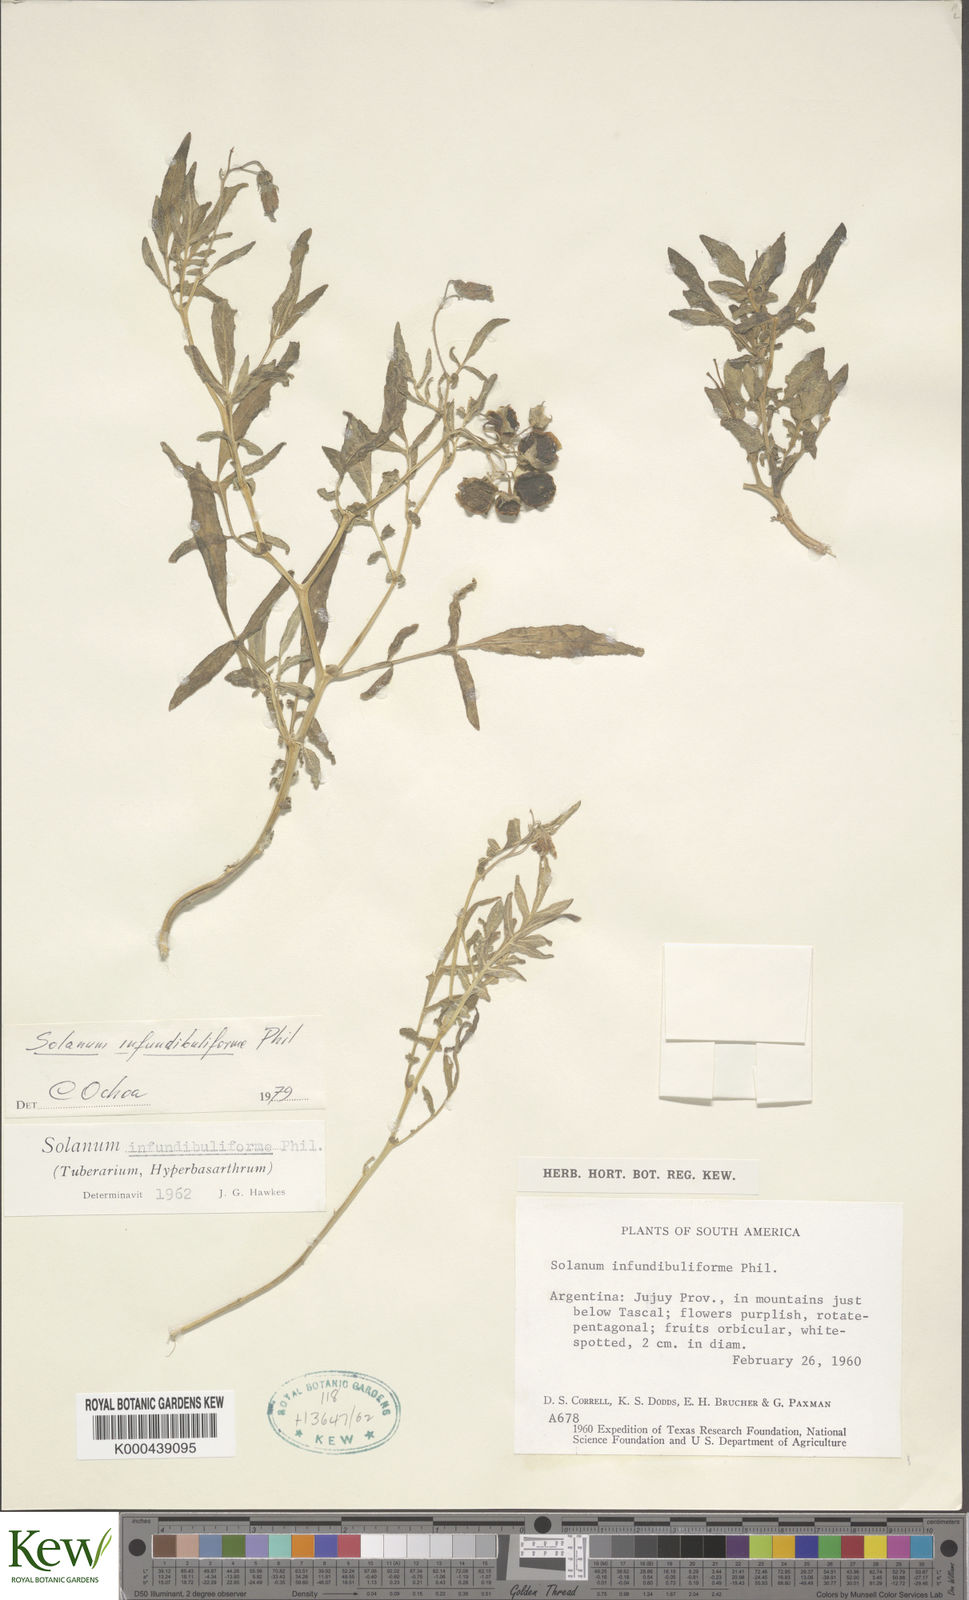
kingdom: Plantae
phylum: Tracheophyta
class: Magnoliopsida
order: Solanales
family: Solanaceae
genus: Solanum
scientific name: Solanum infundibuliforme
